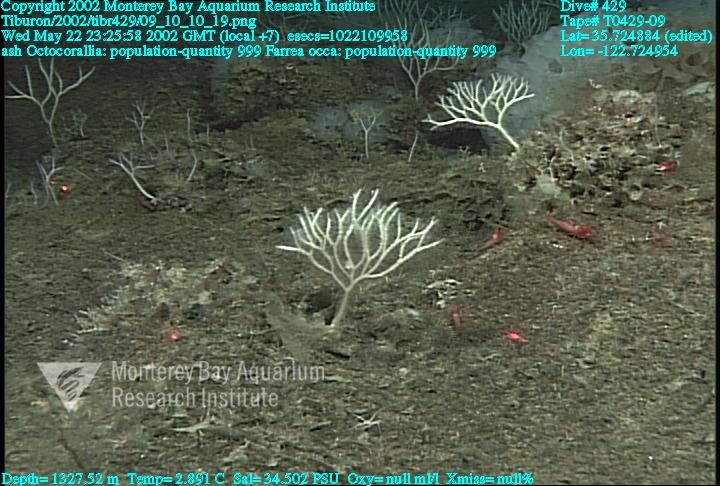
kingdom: Animalia
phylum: Porifera
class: Hexactinellida
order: Sceptrulophora
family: Farreidae
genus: Farrea
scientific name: Farrea occa
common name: Reversed glass sponge
